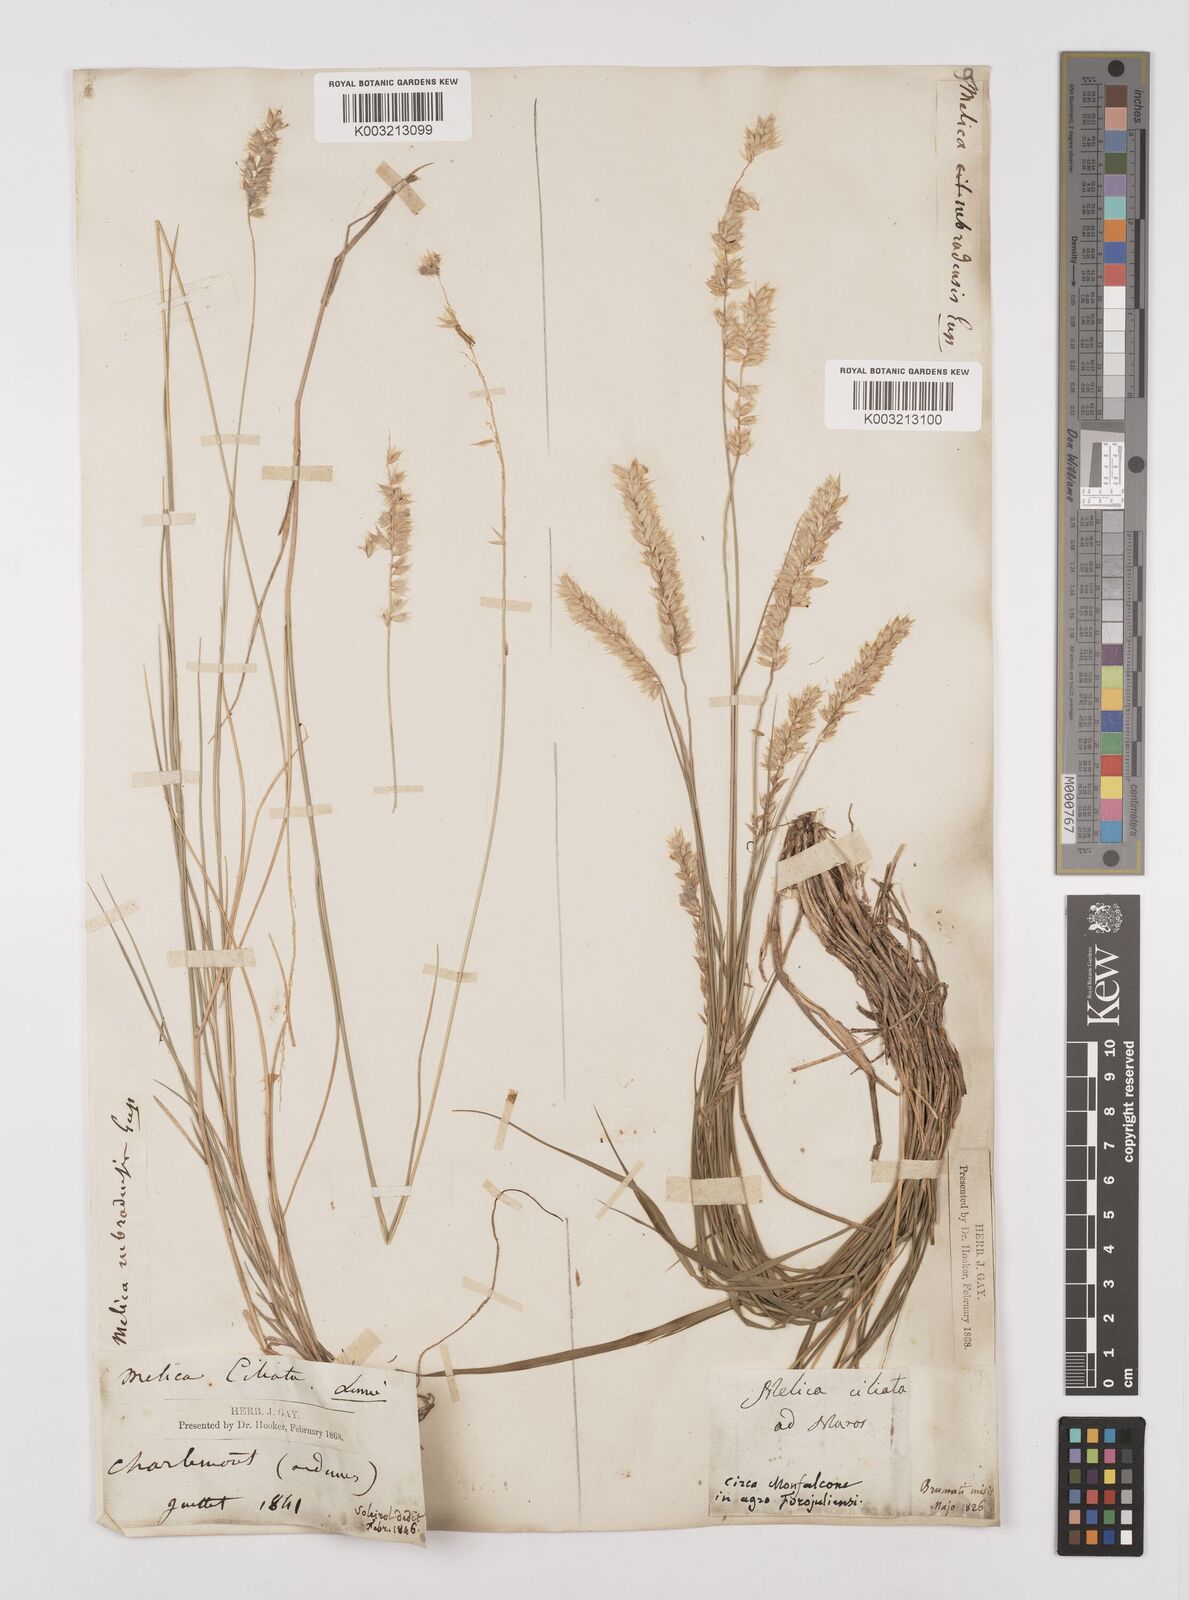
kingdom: Plantae
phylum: Tracheophyta
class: Liliopsida
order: Poales
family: Poaceae
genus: Melica
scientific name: Melica ciliata
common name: Hairy melicgrass
